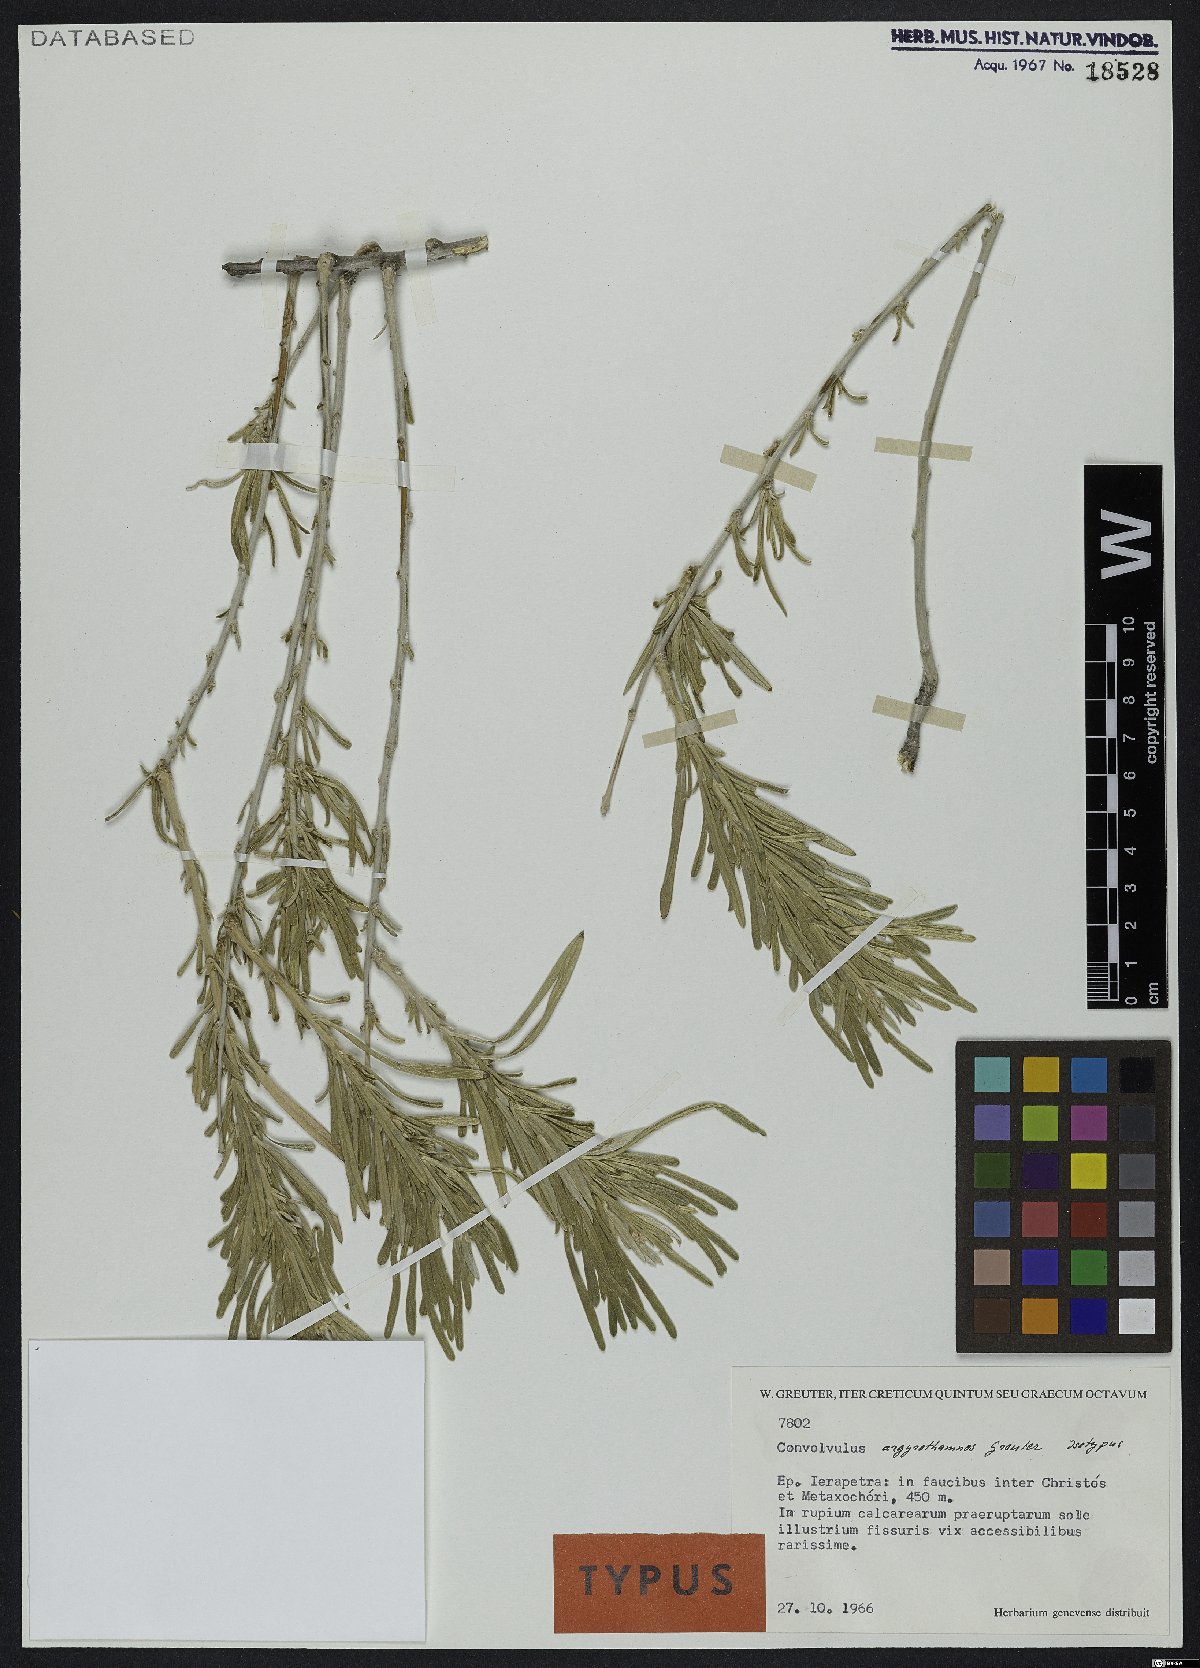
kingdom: Plantae
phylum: Tracheophyta
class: Magnoliopsida
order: Solanales
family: Convolvulaceae
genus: Convolvulus
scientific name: Convolvulus argyrothamnos
